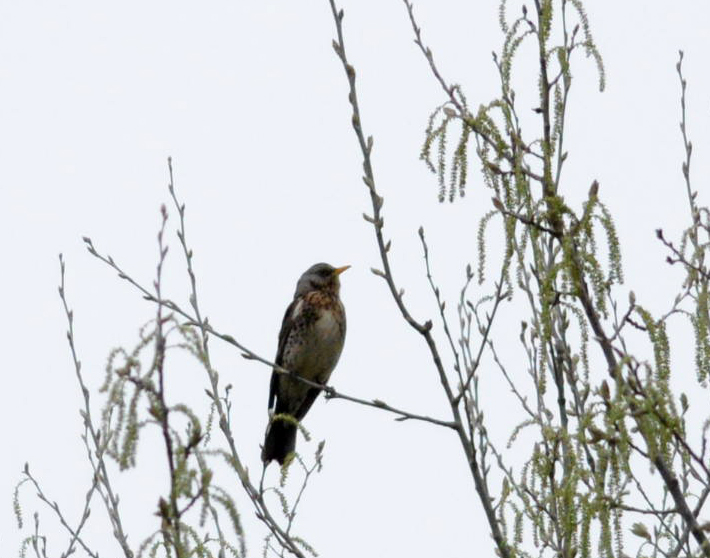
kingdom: Animalia
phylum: Chordata
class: Aves
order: Passeriformes
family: Turdidae
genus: Turdus
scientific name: Turdus pilaris
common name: Fieldfare
